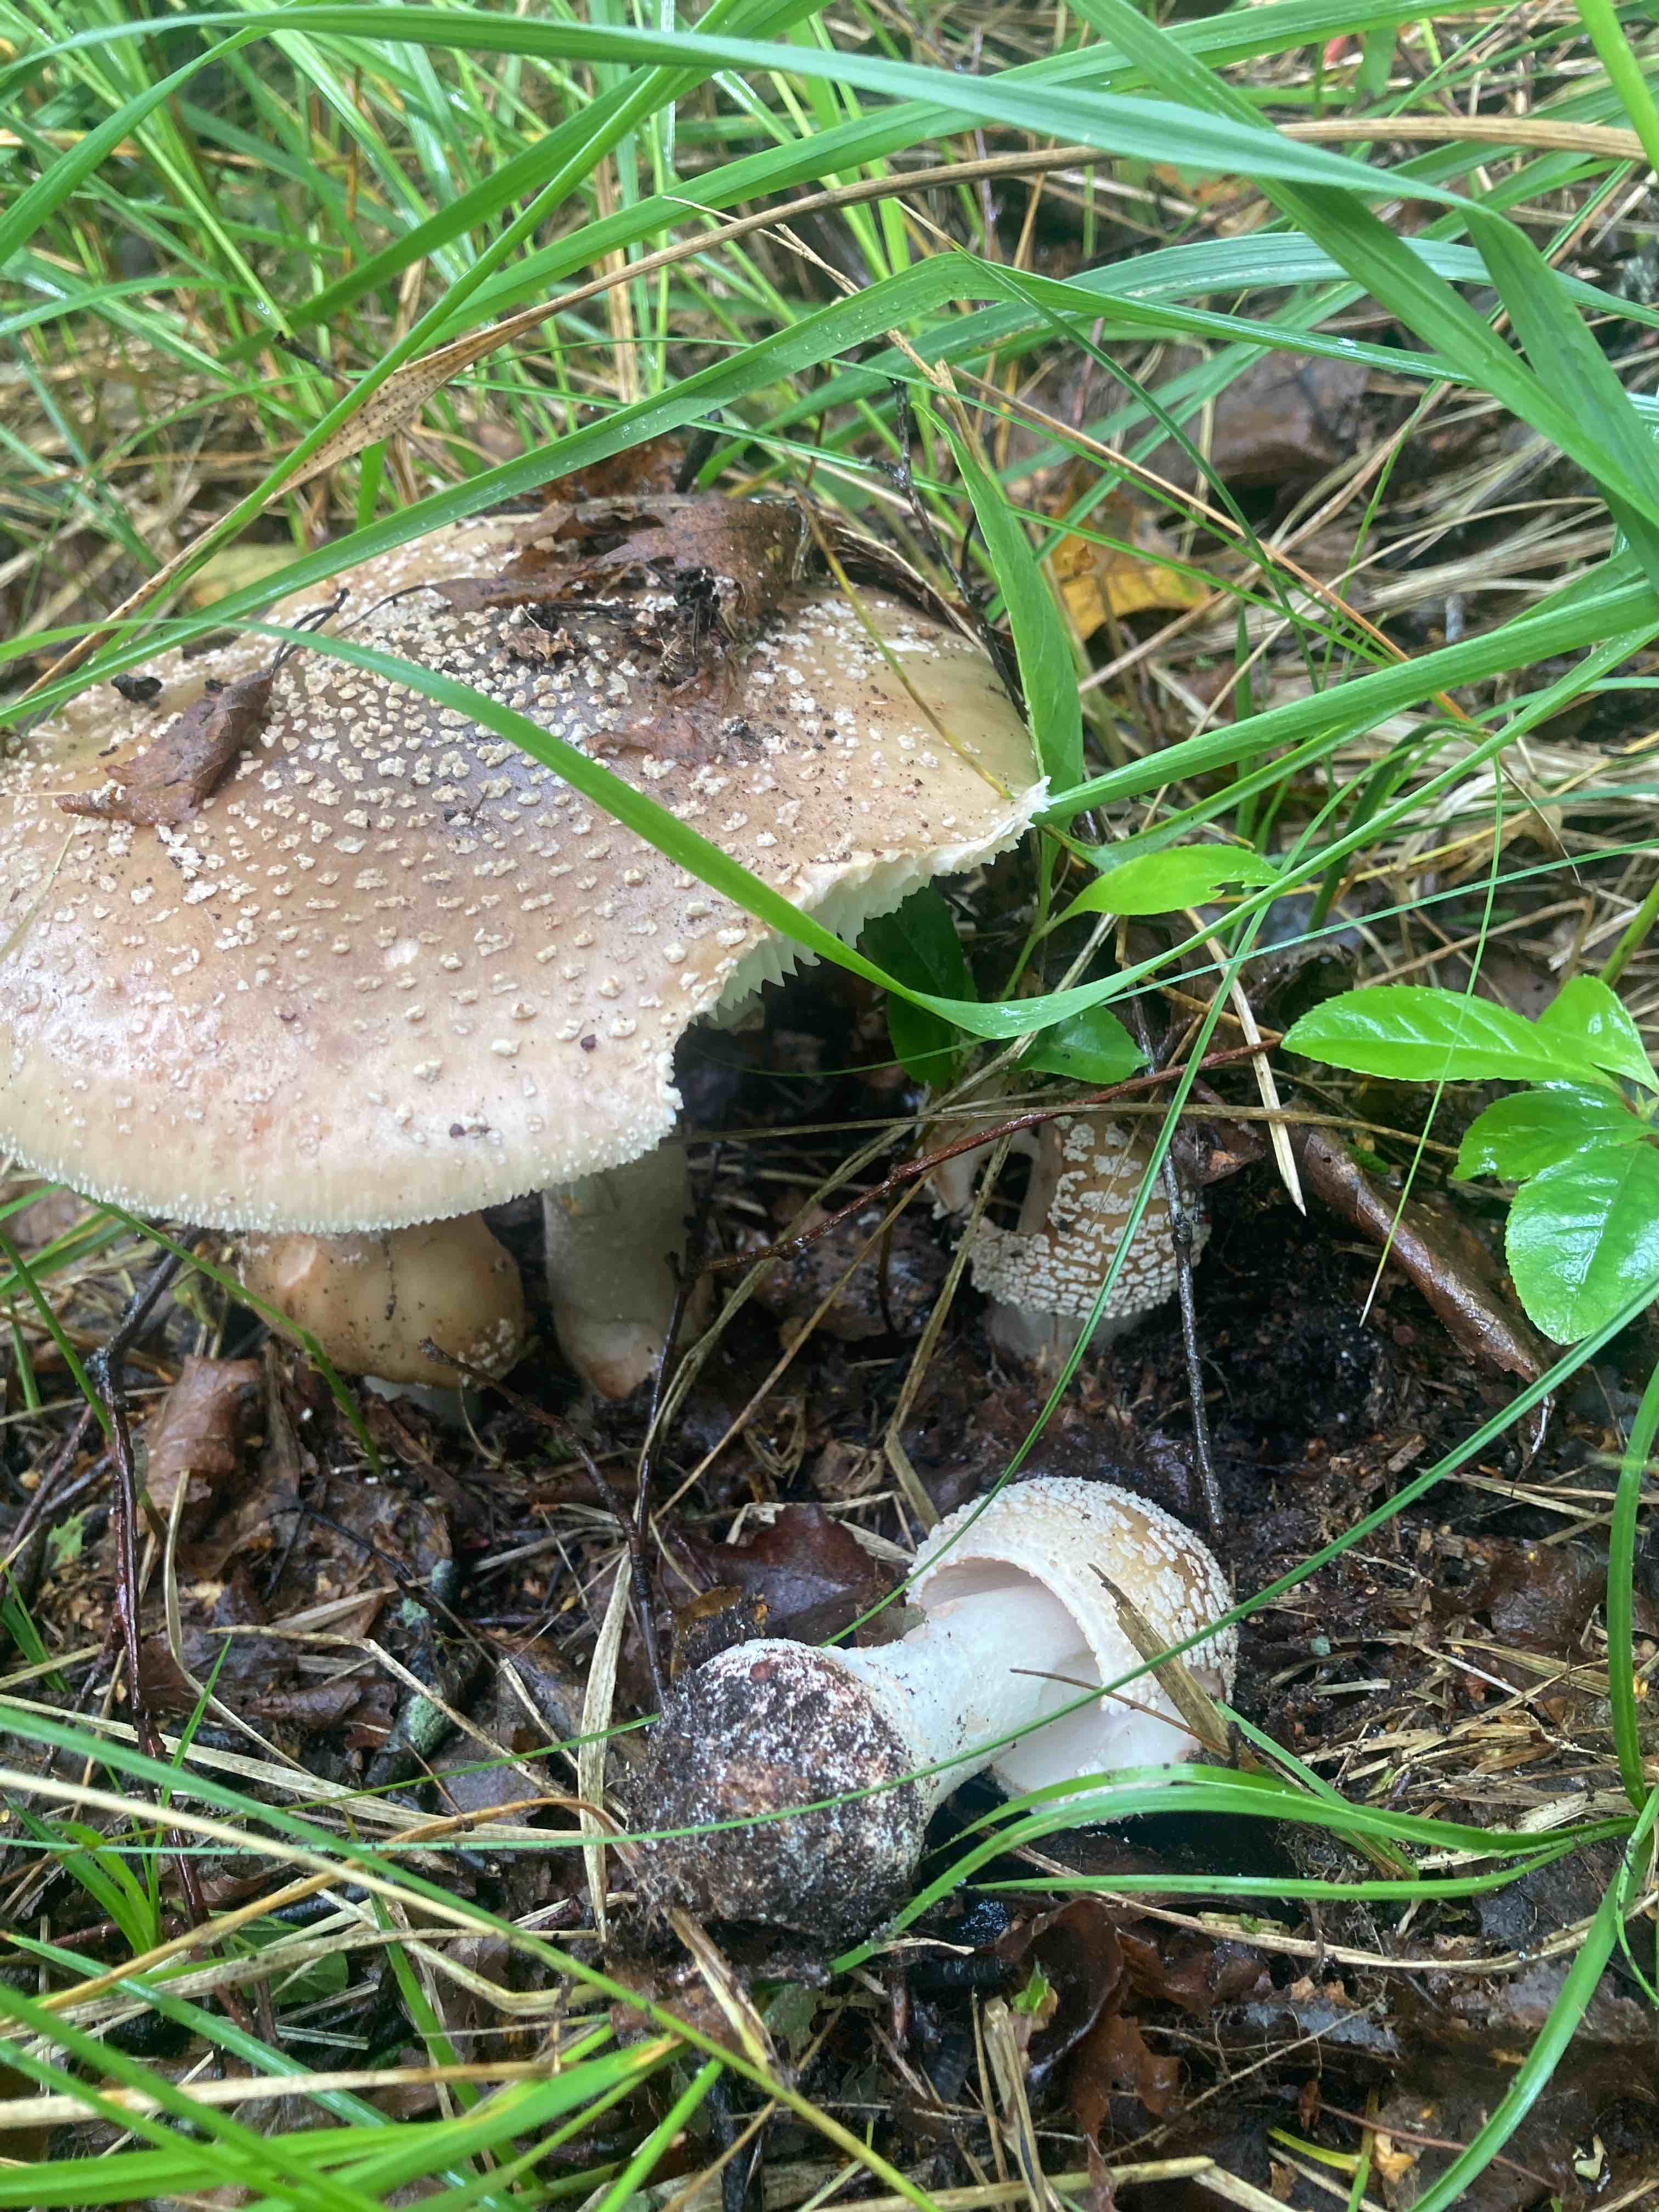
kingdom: Fungi
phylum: Basidiomycota
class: Agaricomycetes
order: Agaricales
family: Amanitaceae
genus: Amanita
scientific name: Amanita rubescens
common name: rødmende fluesvamp
